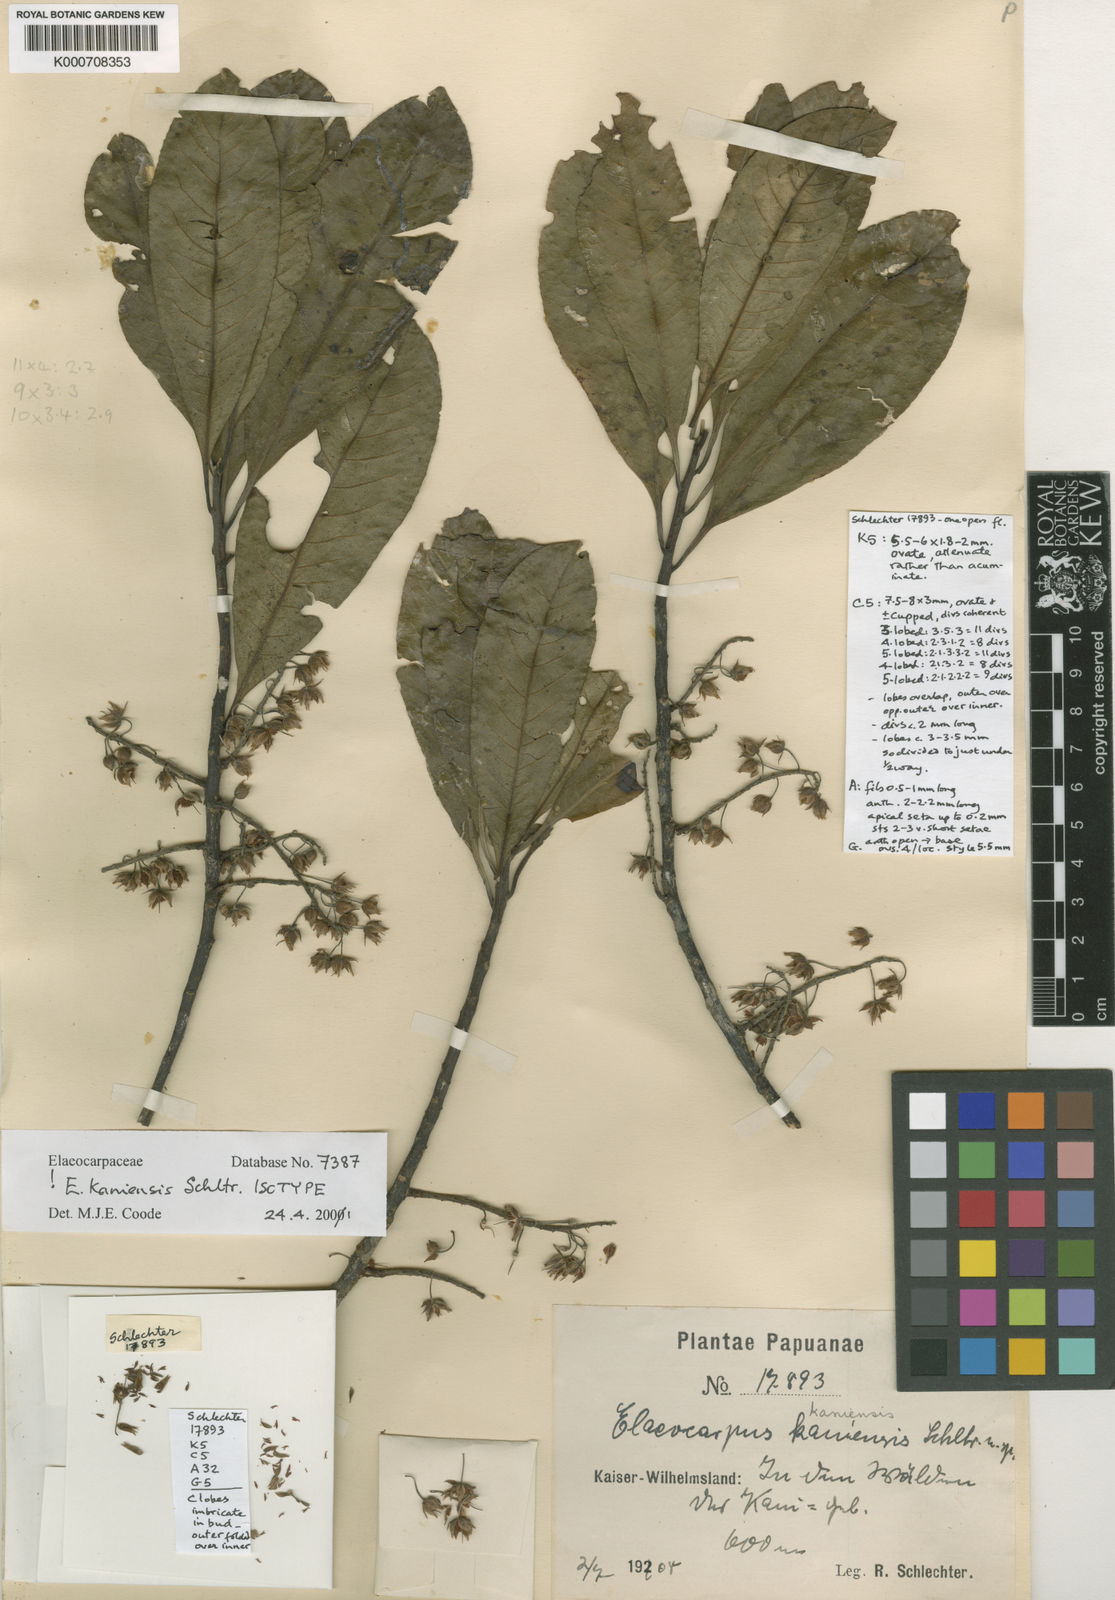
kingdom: Plantae
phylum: Tracheophyta
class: Magnoliopsida
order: Oxalidales
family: Elaeocarpaceae
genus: Elaeocarpus
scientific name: Elaeocarpus kaniensis
